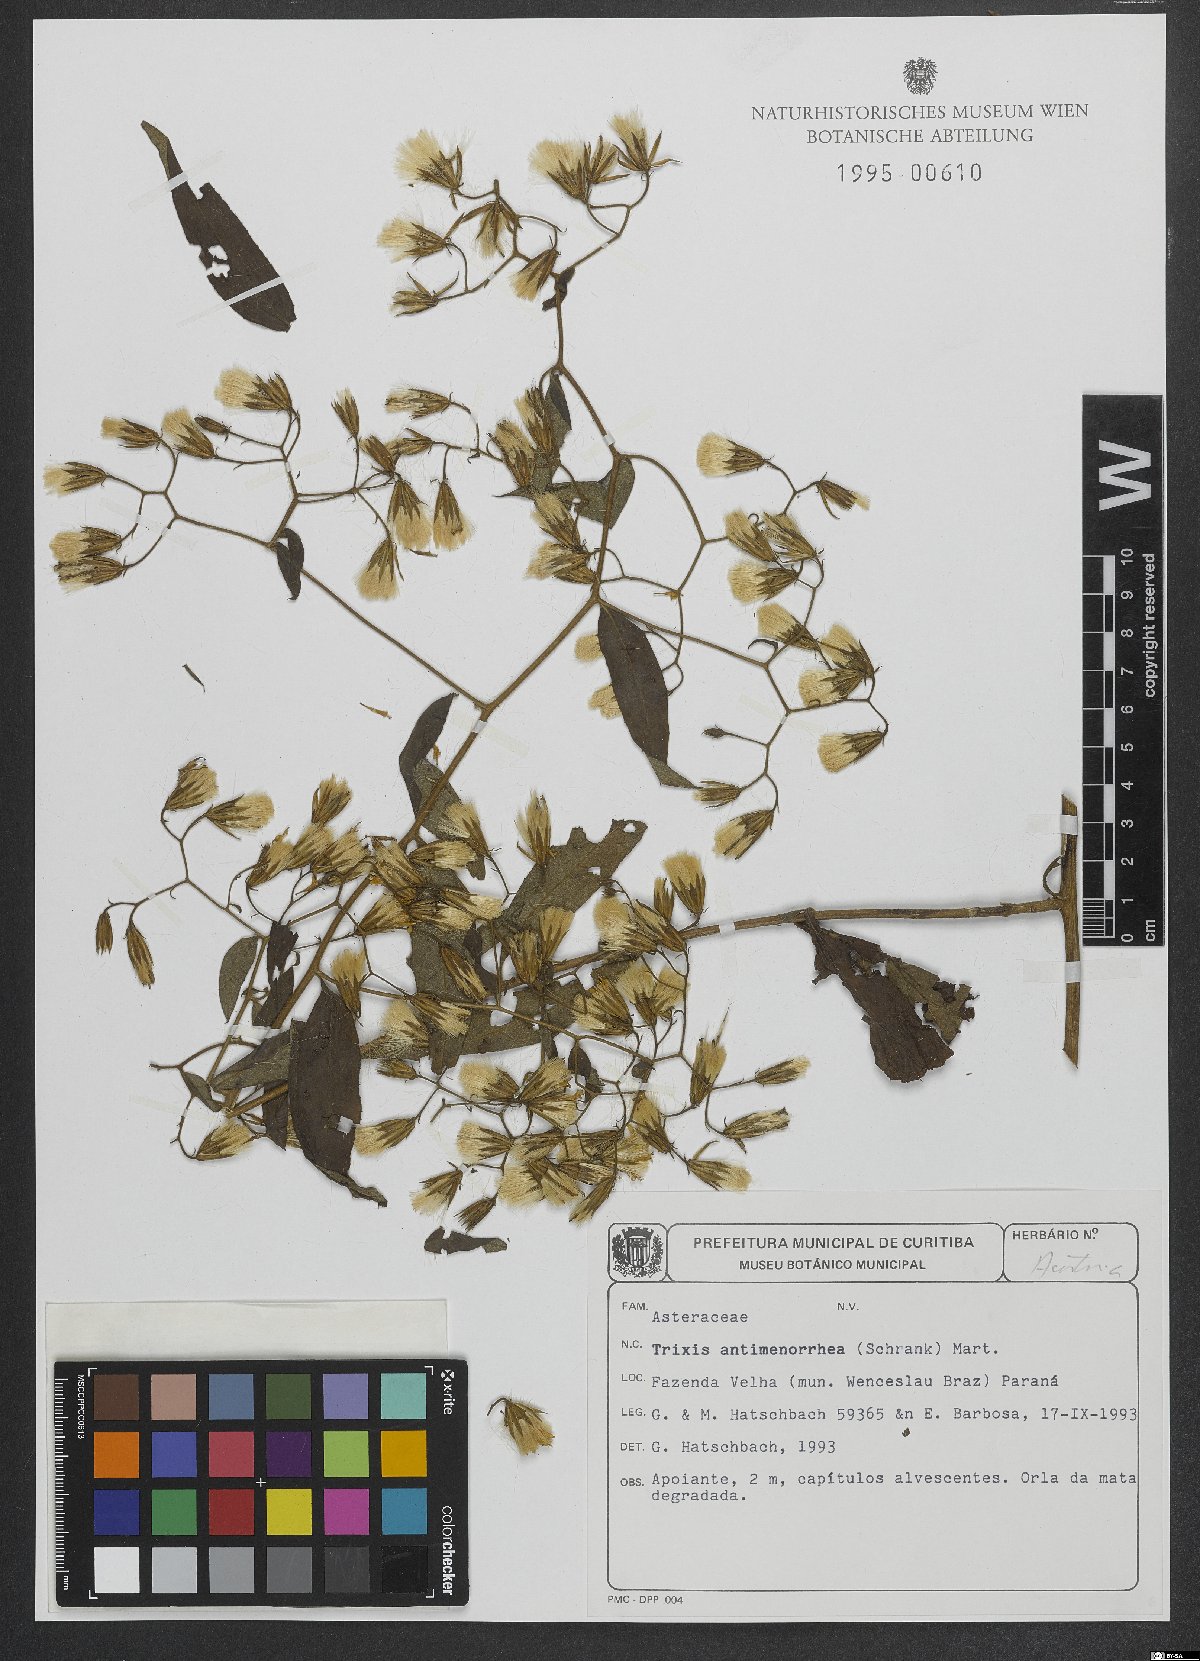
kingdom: Plantae
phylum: Tracheophyta
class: Magnoliopsida
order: Asterales
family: Asteraceae
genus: Trixis
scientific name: Trixis divaricata
